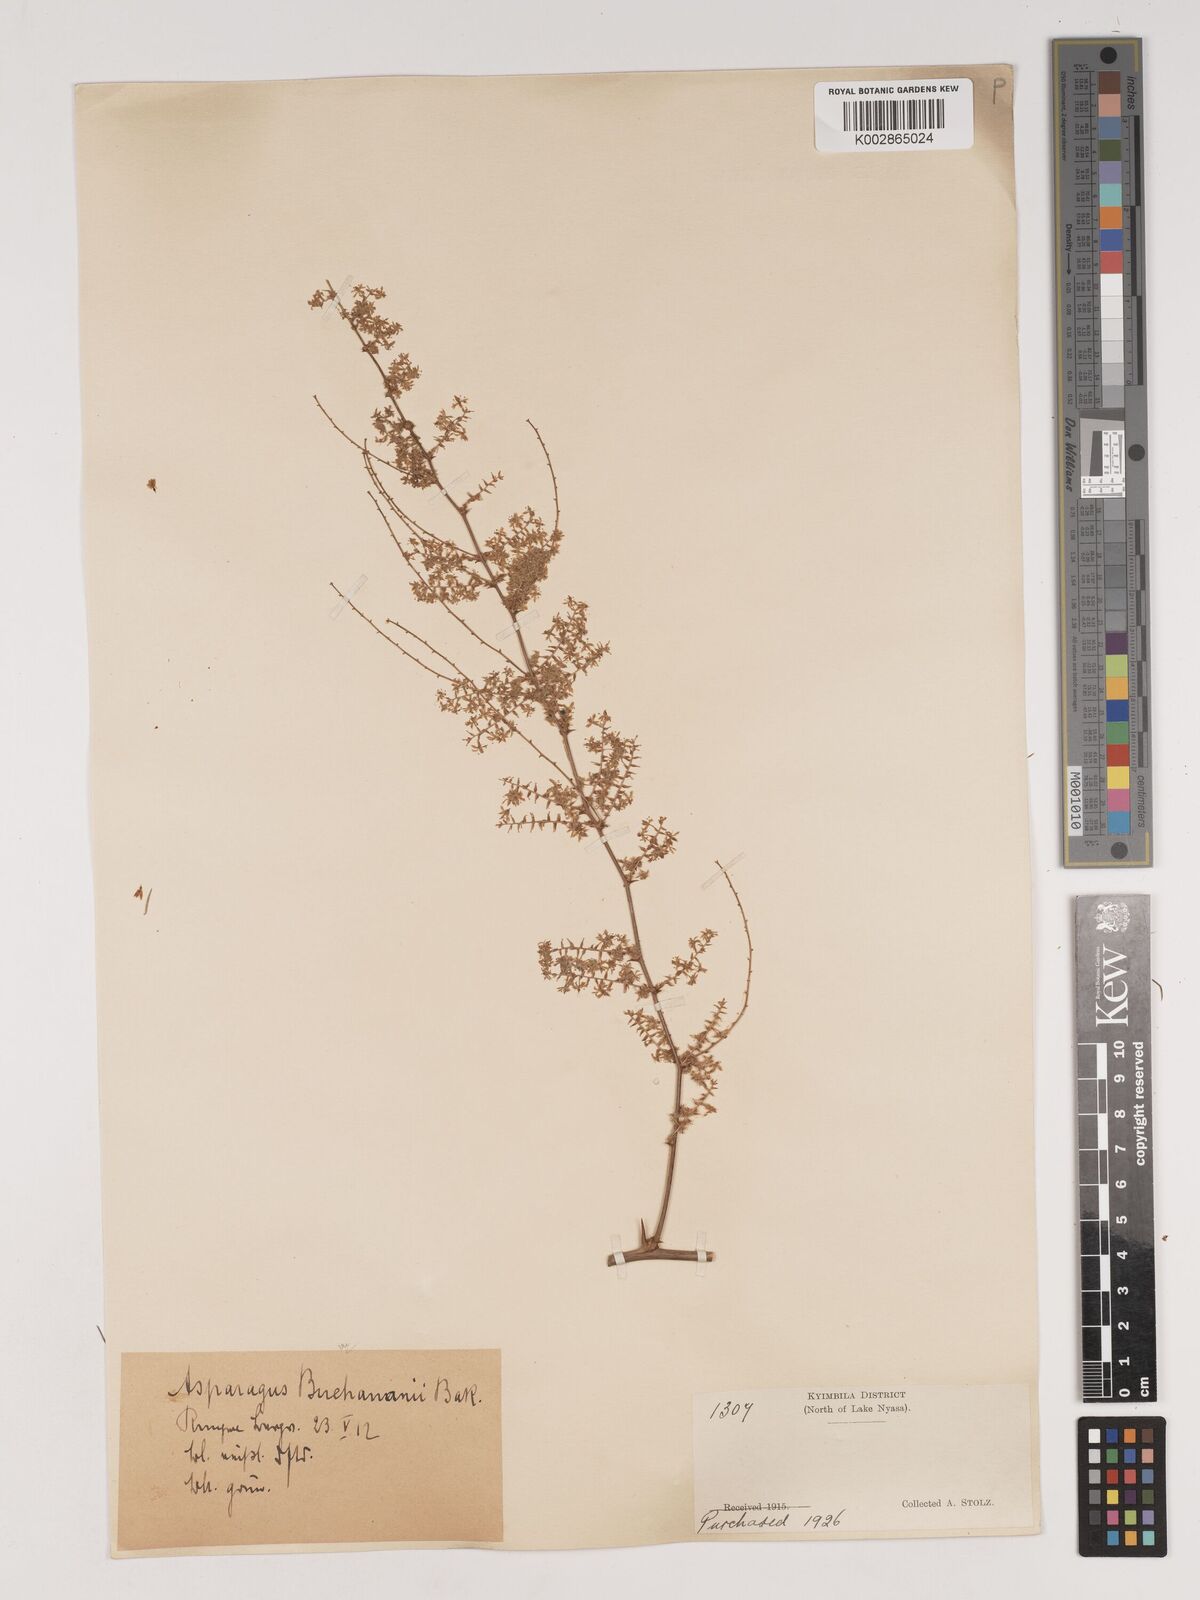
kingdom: Plantae
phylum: Tracheophyta
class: Liliopsida
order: Asparagales
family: Asparagaceae
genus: Asparagus
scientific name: Asparagus buchananii
